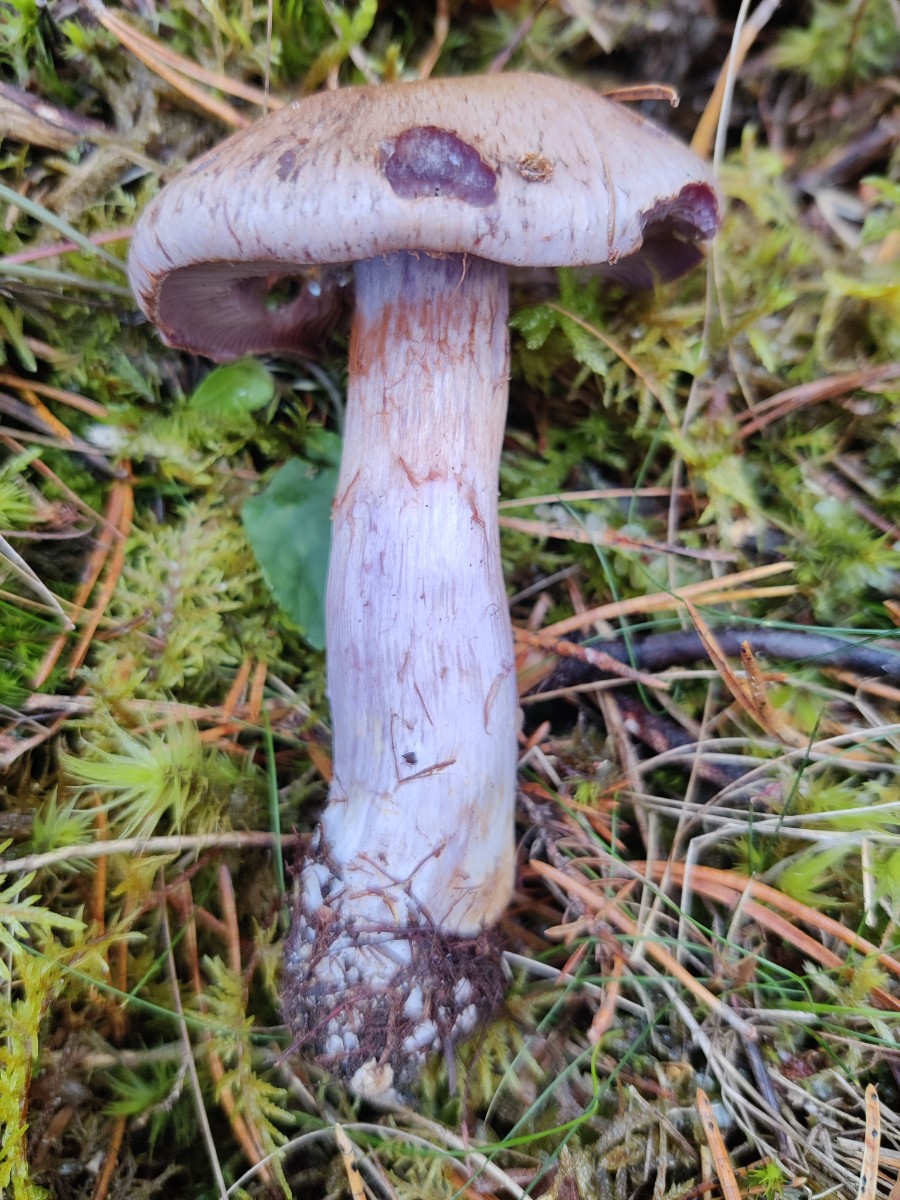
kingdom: Fungi
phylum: Basidiomycota
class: Agaricomycetes
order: Agaricales
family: Cortinariaceae
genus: Phlegmacium
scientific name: Phlegmacium violaceomaculatum
